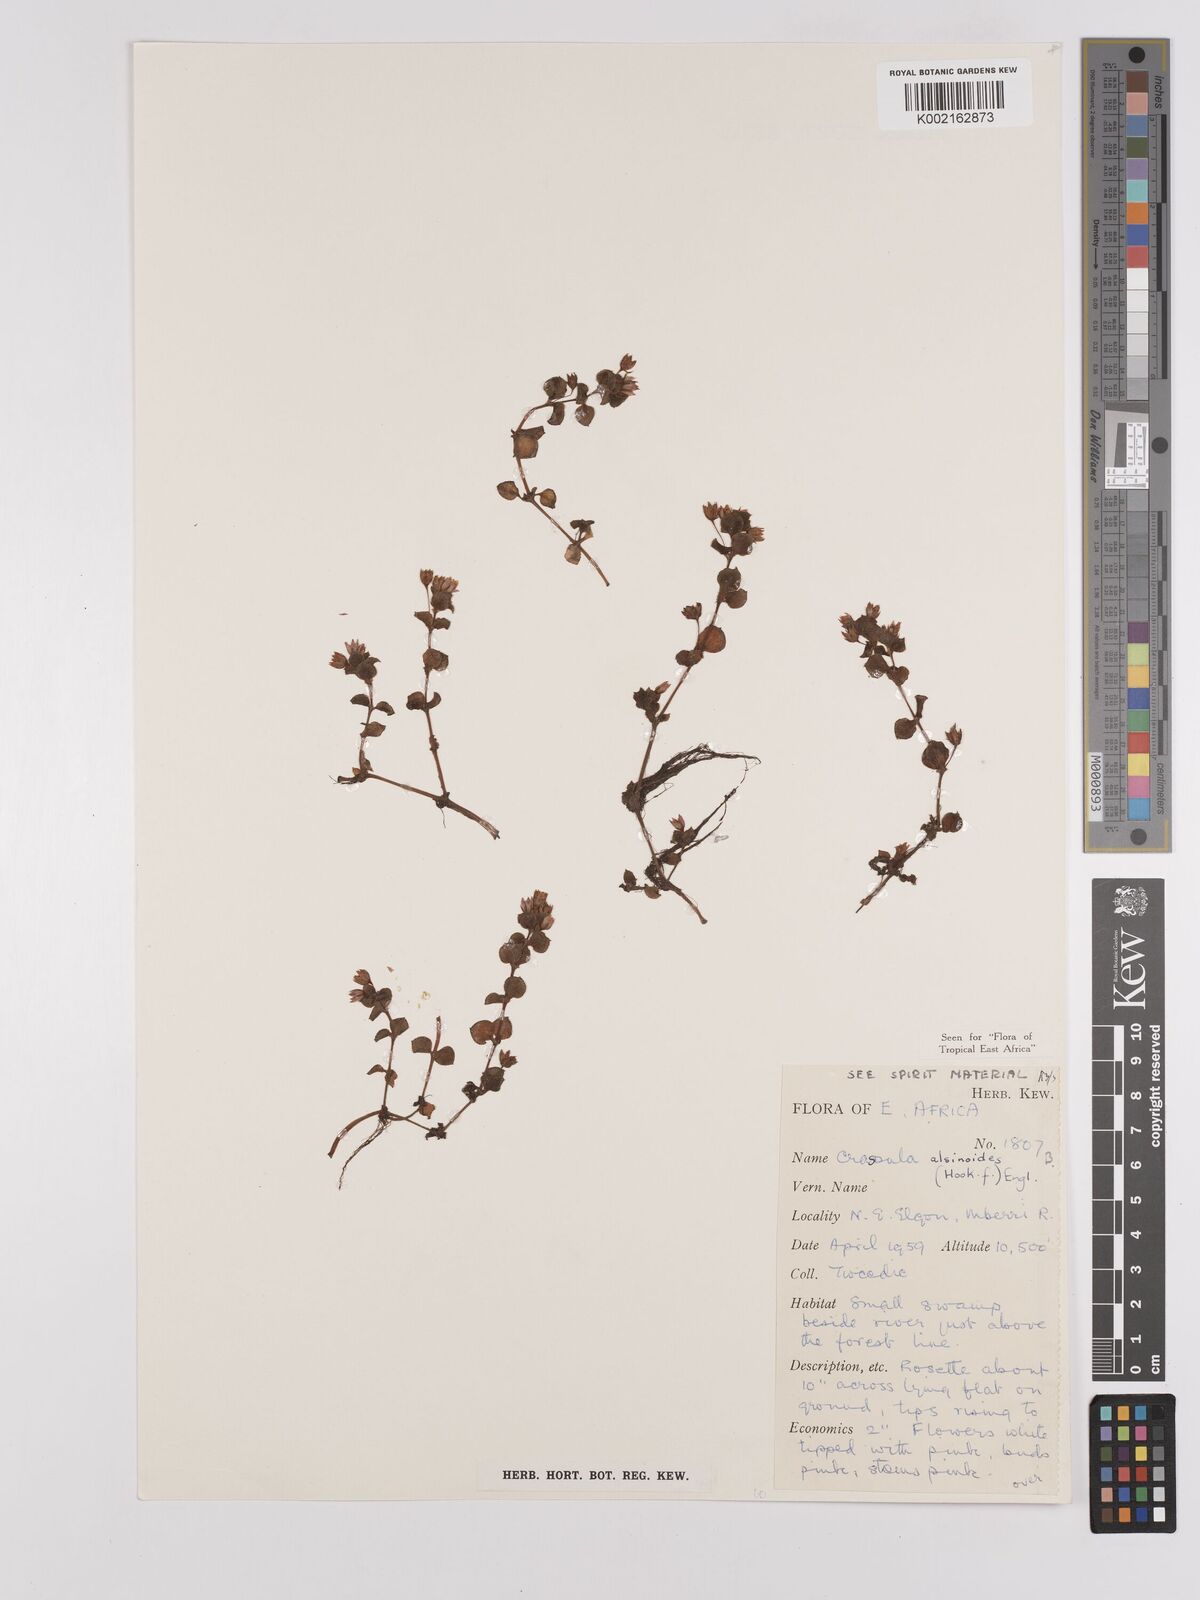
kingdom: Plantae
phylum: Tracheophyta
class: Magnoliopsida
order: Saxifragales
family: Crassulaceae
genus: Crassula
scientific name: Crassula alsinoides
